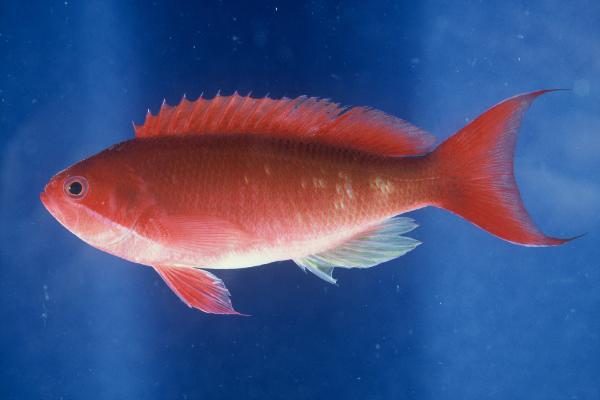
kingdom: Animalia
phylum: Chordata
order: Perciformes
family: Serranidae
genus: Pseudanthias
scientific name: Pseudanthias cooperi
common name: Red basslet
